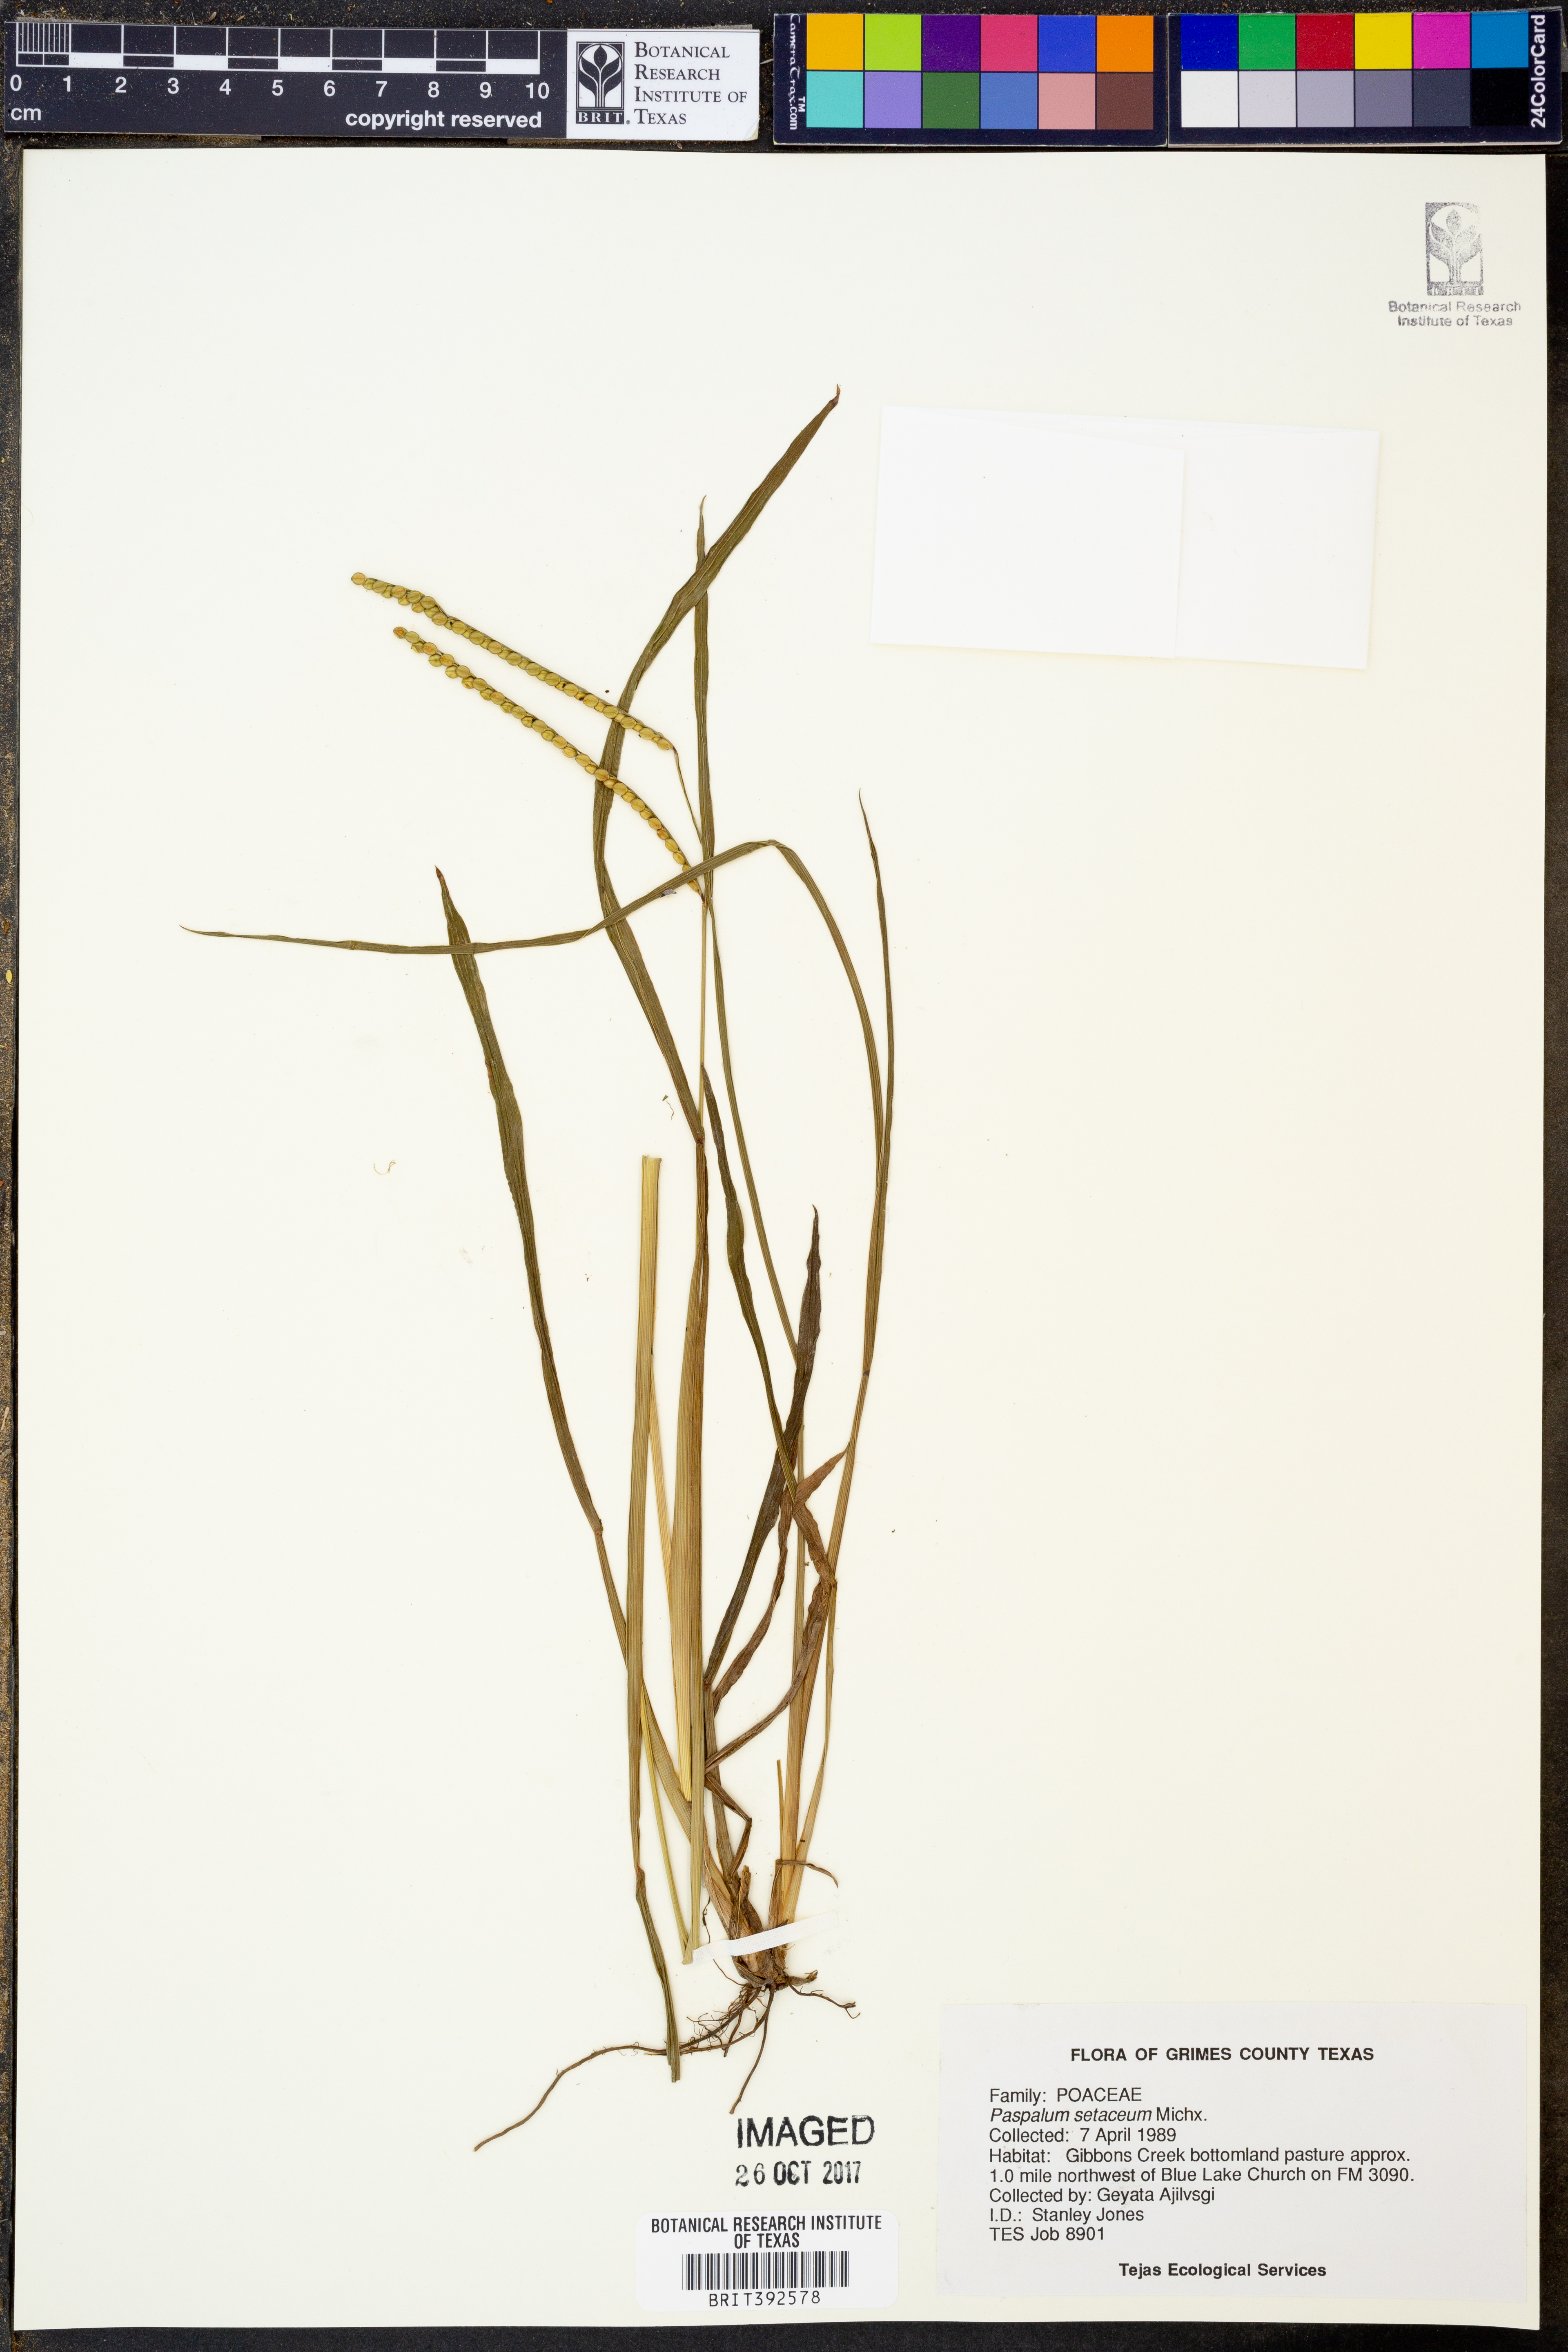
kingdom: Plantae
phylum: Tracheophyta
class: Liliopsida
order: Poales
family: Poaceae
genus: Paspalum
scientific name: Paspalum setaceum
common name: Slender paspalum
